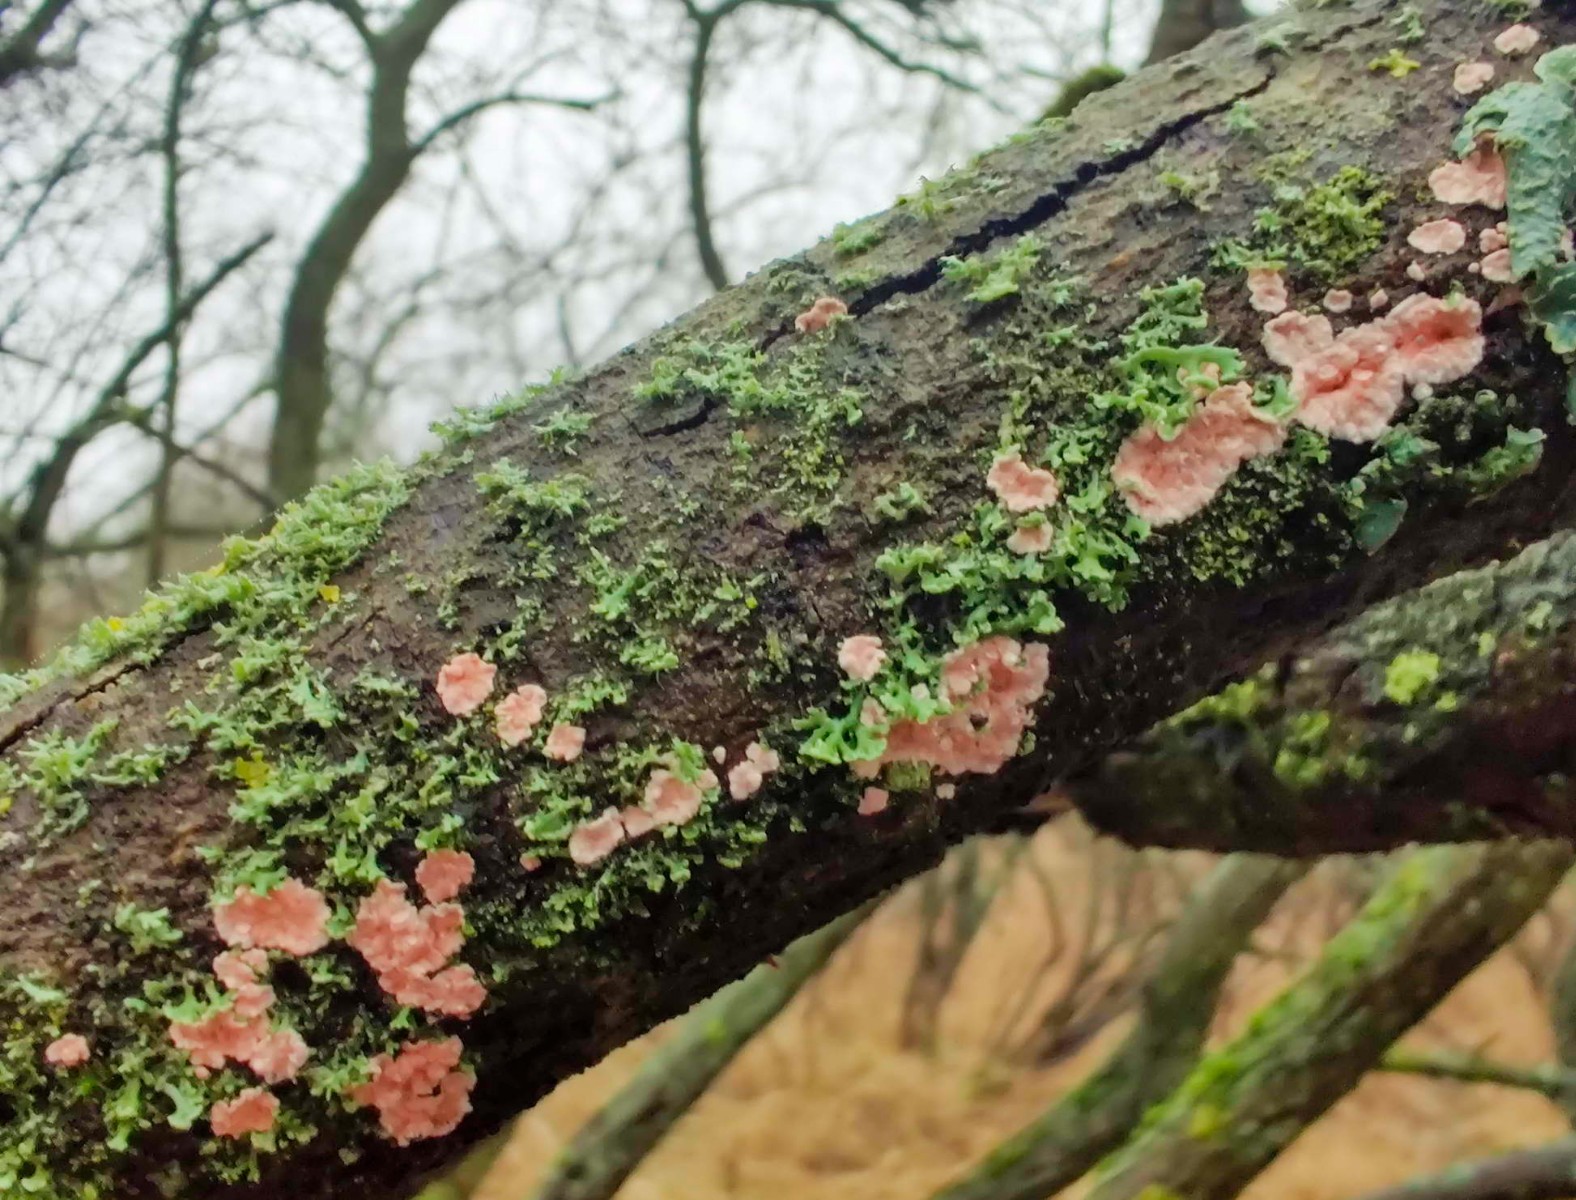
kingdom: Fungi
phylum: Basidiomycota
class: Agaricomycetes
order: Corticiales
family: Corticiaceae
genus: Corticium
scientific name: Corticium roseum
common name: rosa barkskind
